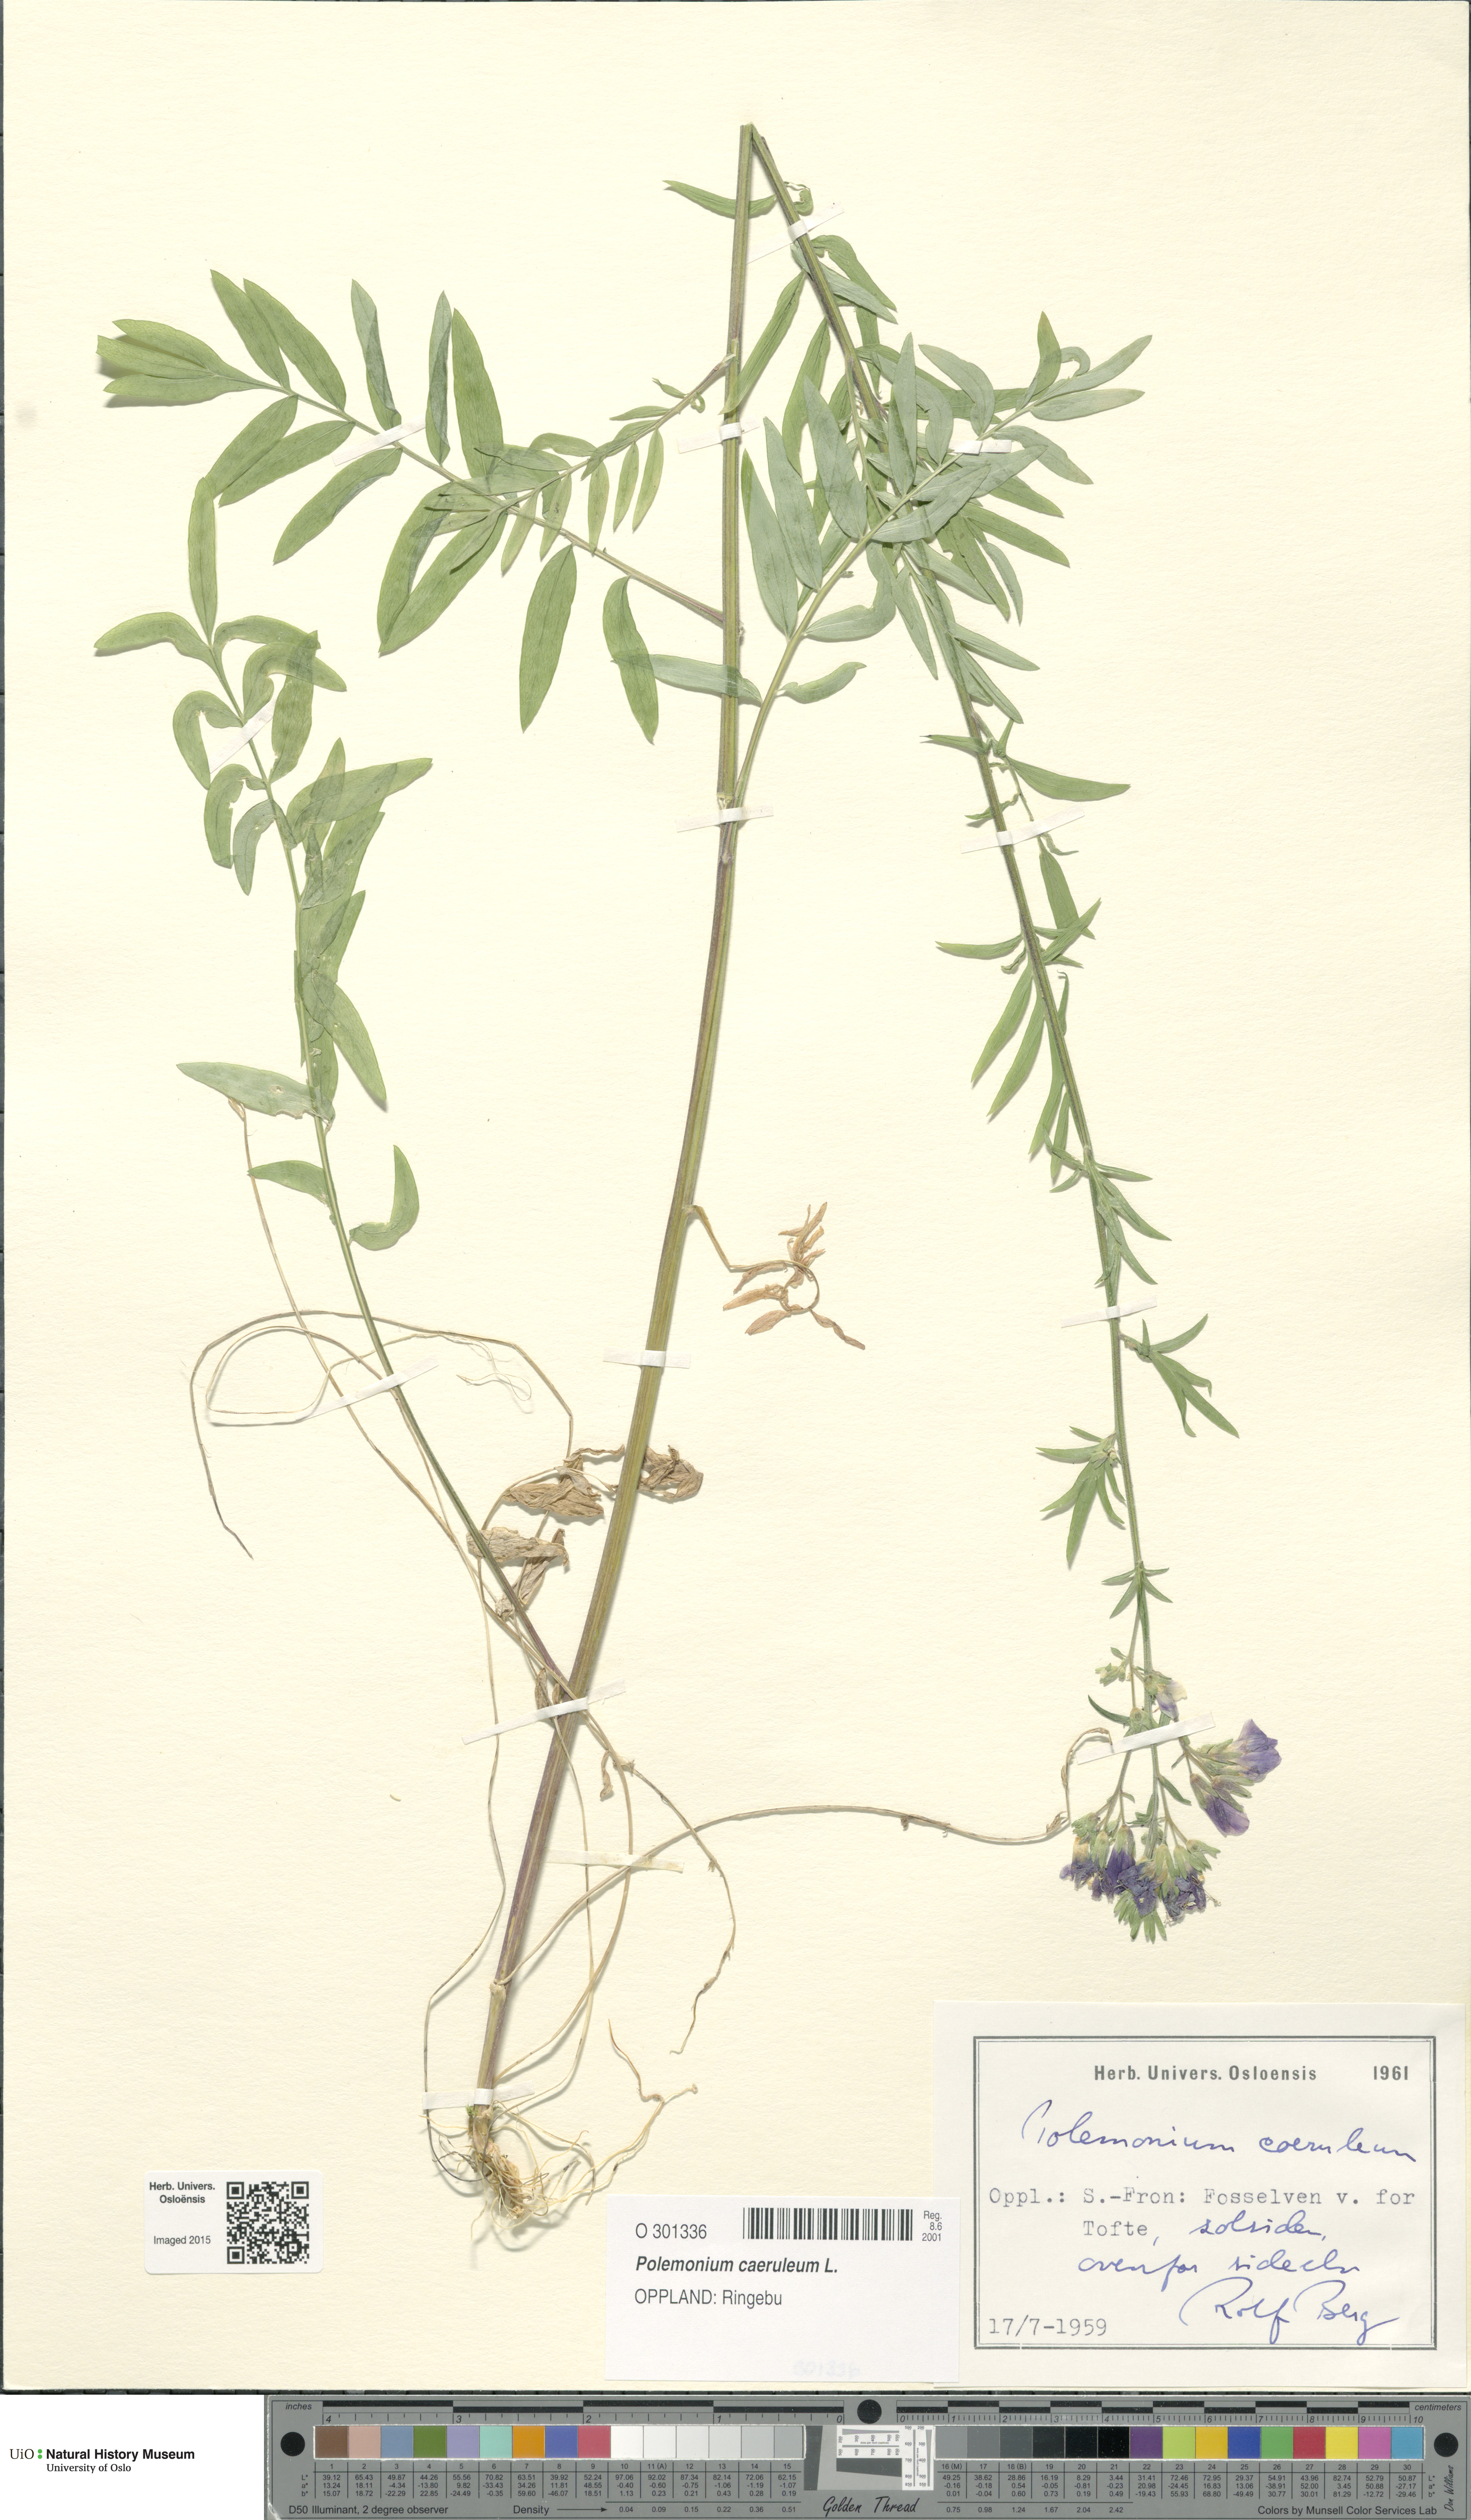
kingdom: Plantae
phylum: Tracheophyta
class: Magnoliopsida
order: Ericales
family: Polemoniaceae
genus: Polemonium
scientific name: Polemonium caeruleum
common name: Jacob's-ladder
